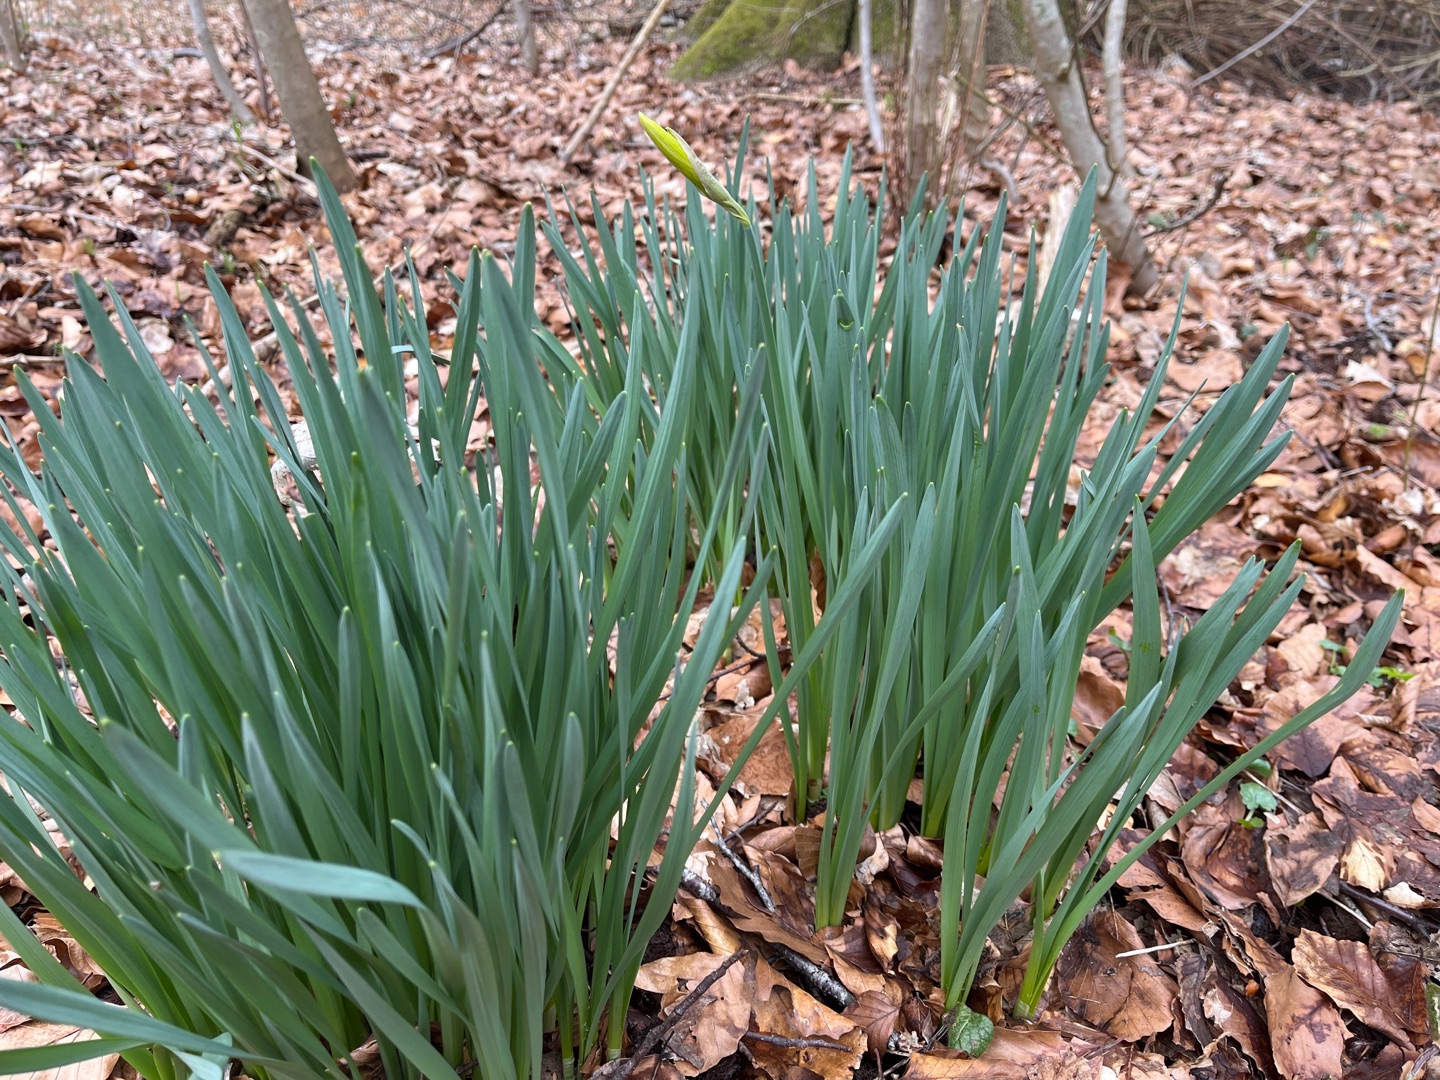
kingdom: Plantae
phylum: Tracheophyta
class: Liliopsida
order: Asparagales
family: Amaryllidaceae
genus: Narcissus
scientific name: Narcissus pseudonarcissus
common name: Påskelilje
